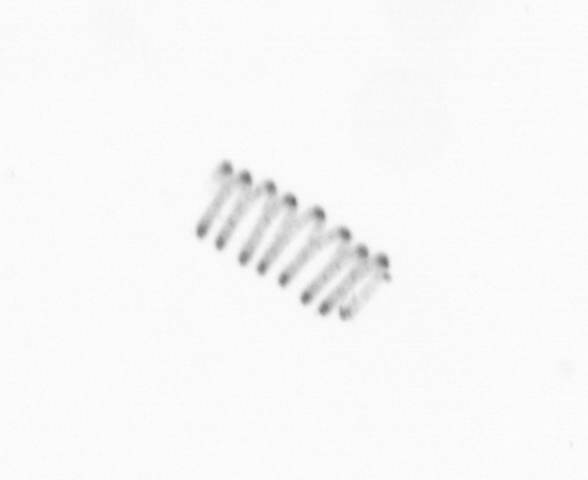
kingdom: Chromista
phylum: Ochrophyta
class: Bacillariophyceae
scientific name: Bacillariophyceae
